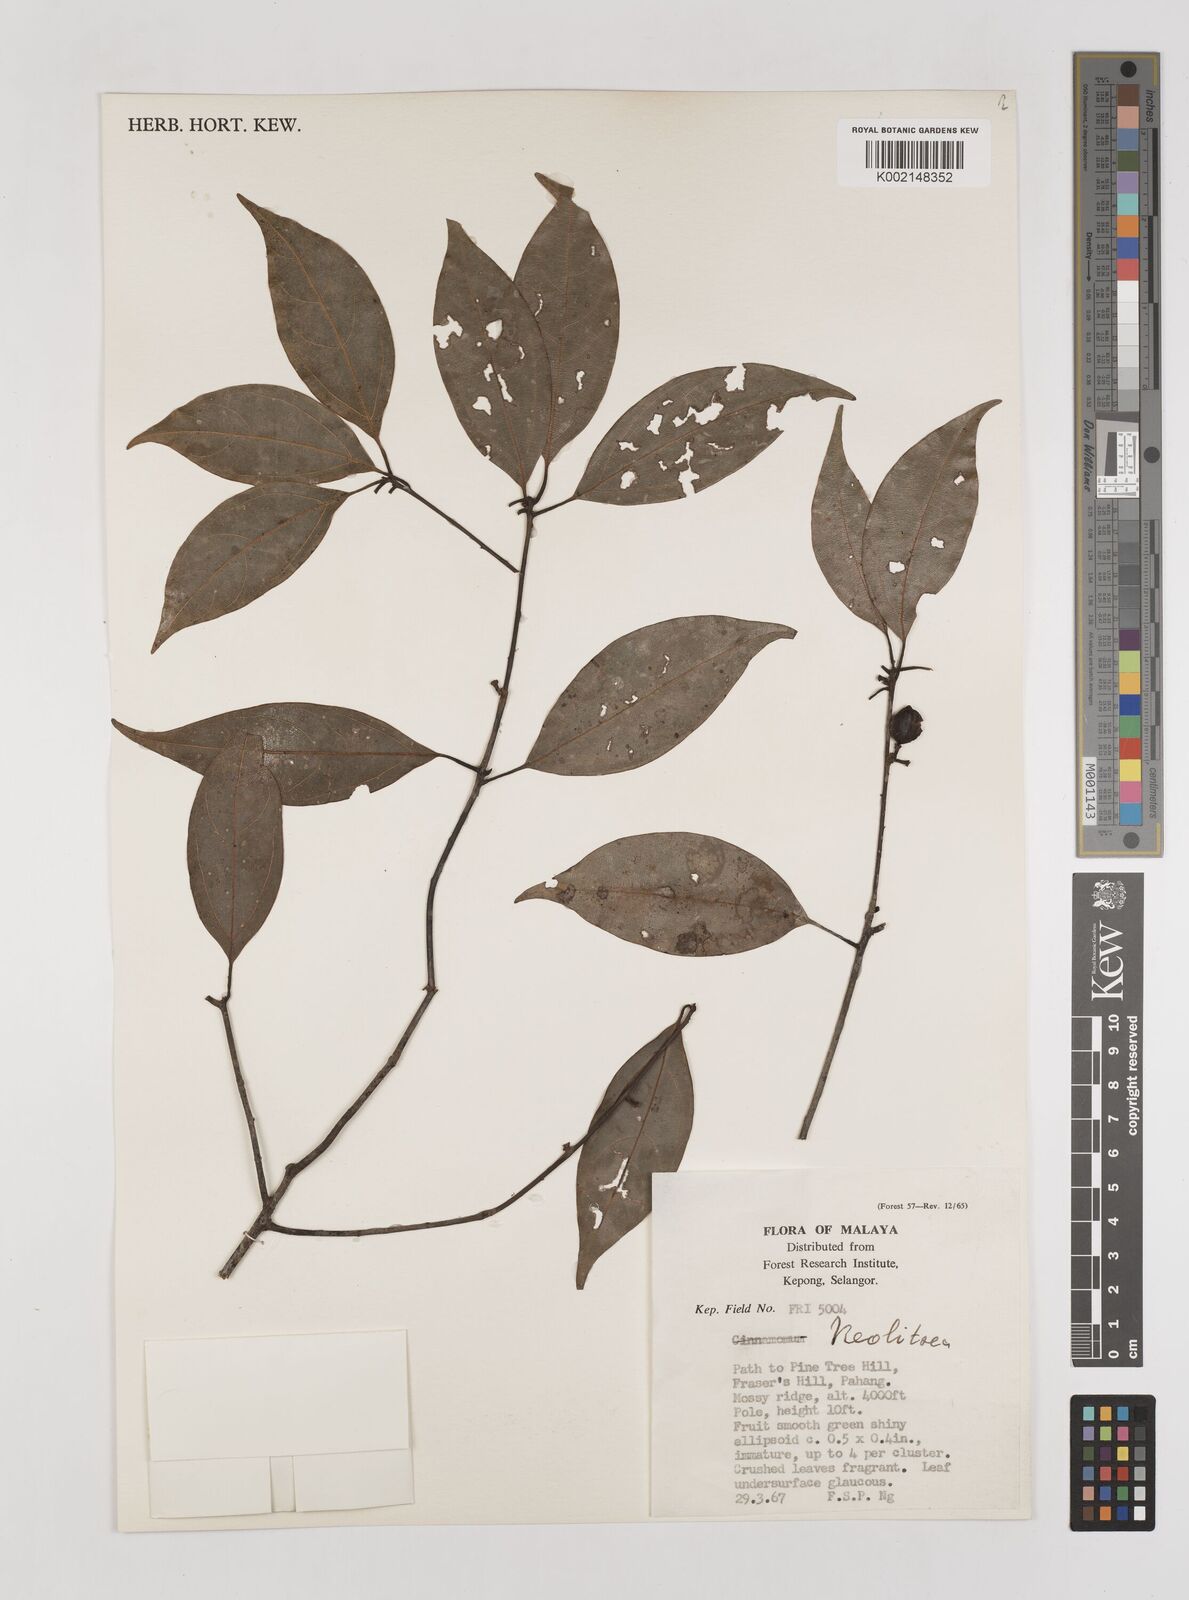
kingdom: Plantae
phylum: Tracheophyta
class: Magnoliopsida
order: Laurales
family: Lauraceae
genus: Neolitsea
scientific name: Neolitsea
